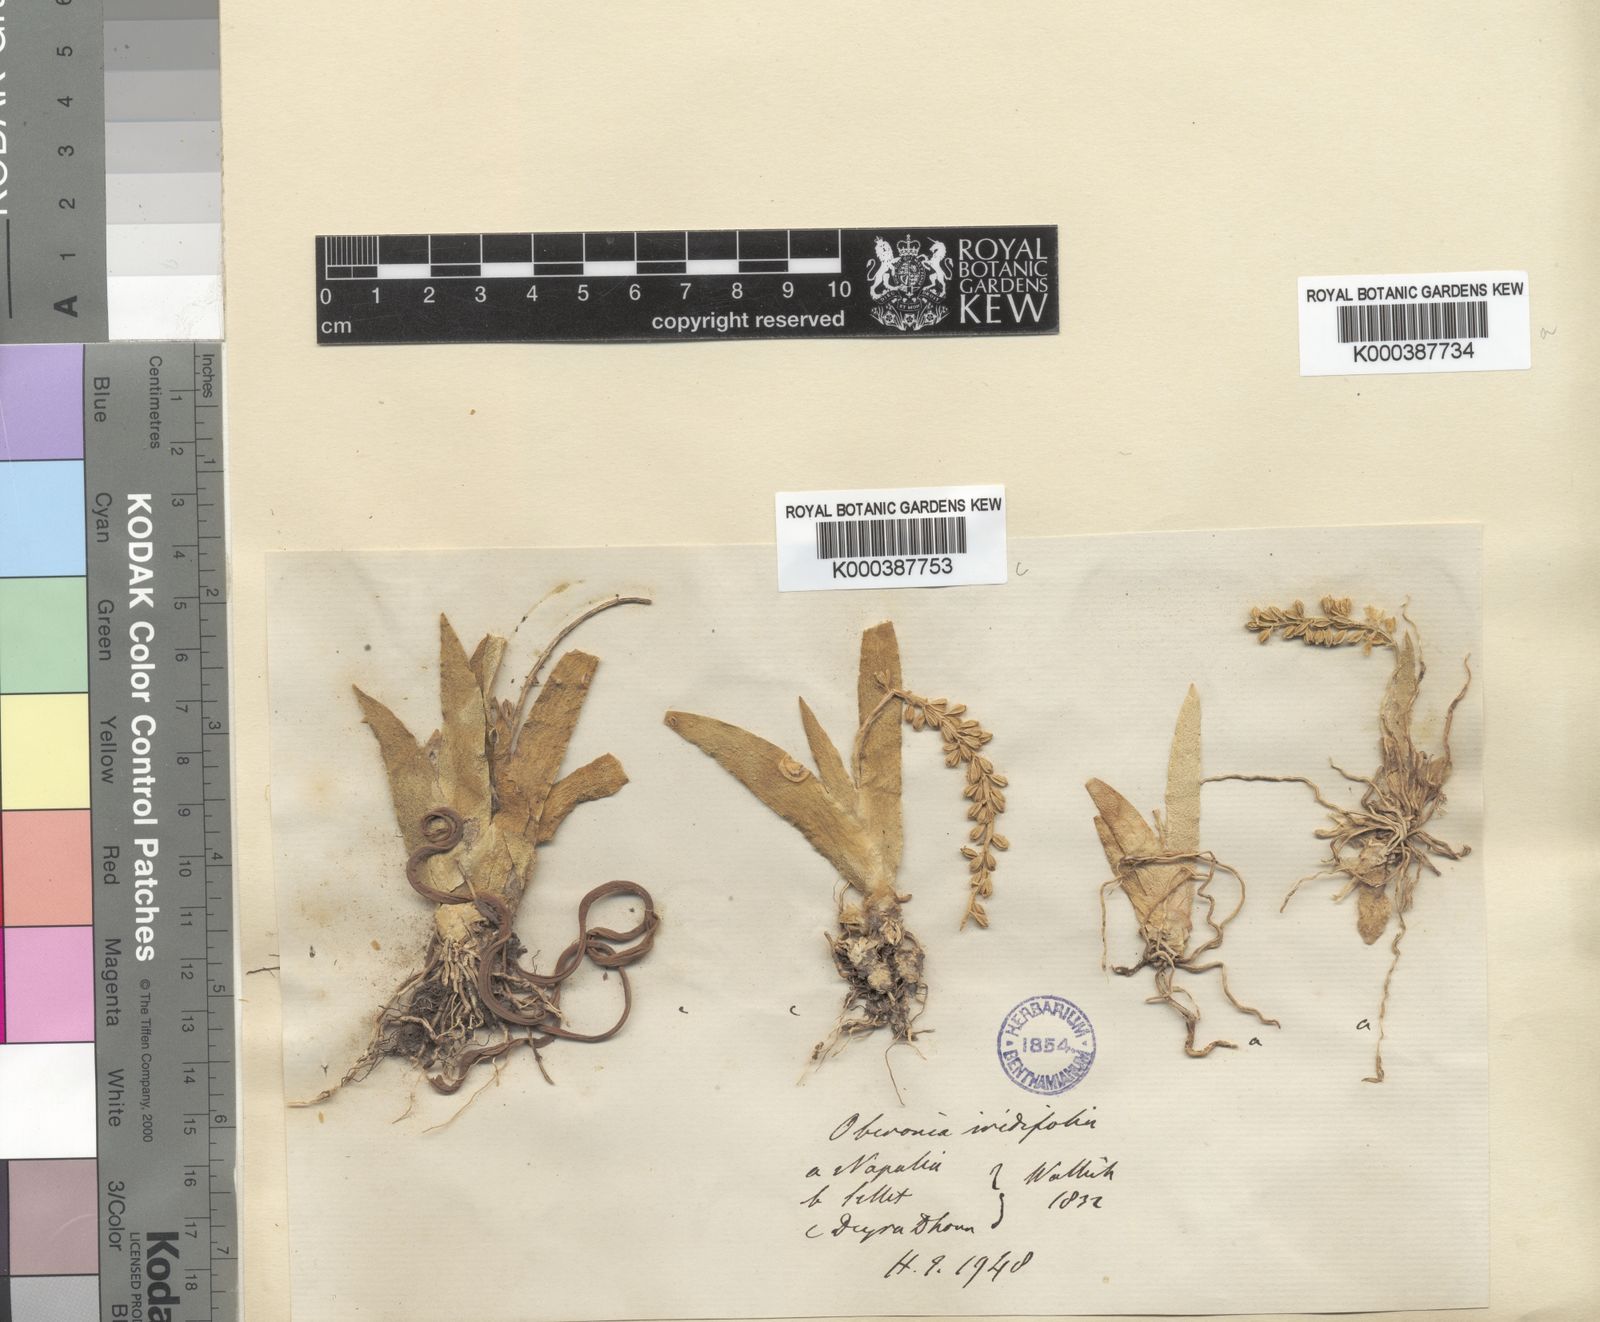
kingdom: Plantae
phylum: Tracheophyta
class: Liliopsida
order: Asparagales
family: Orchidaceae
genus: Oberonia
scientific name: Oberonia falconeri
